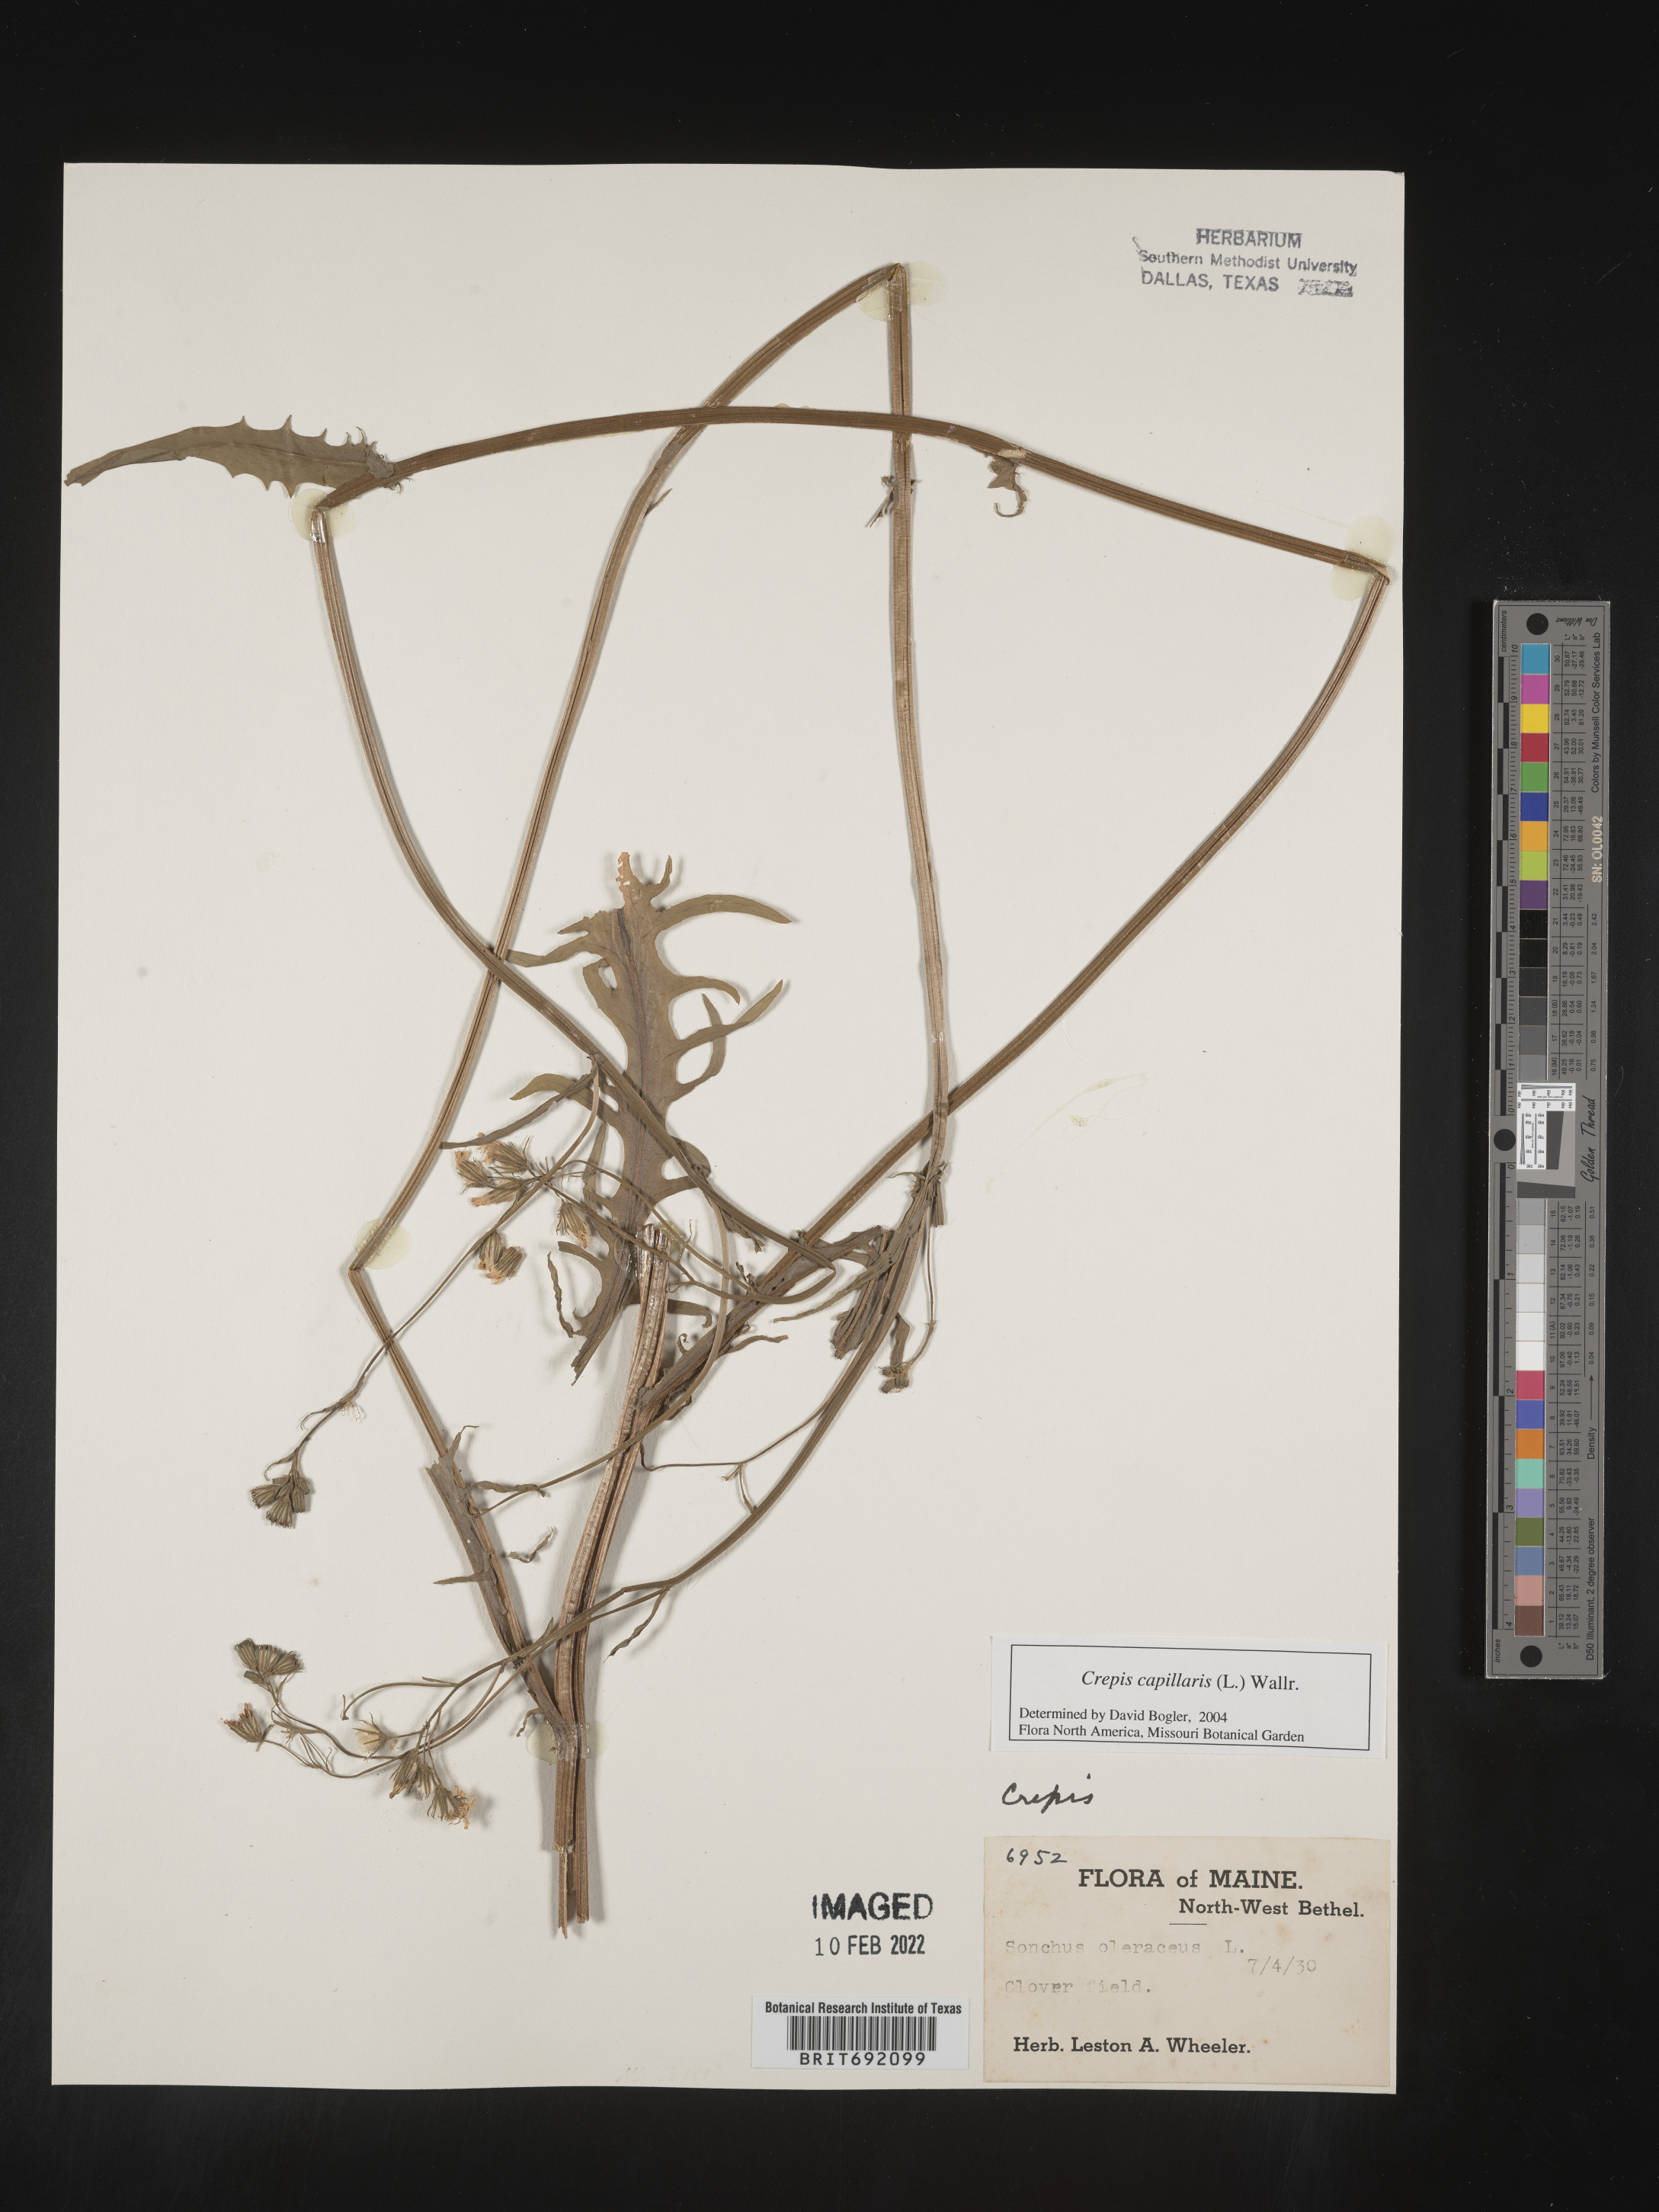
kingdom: Plantae
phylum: Tracheophyta
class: Magnoliopsida
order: Asterales
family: Asteraceae
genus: Crepis
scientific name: Crepis
